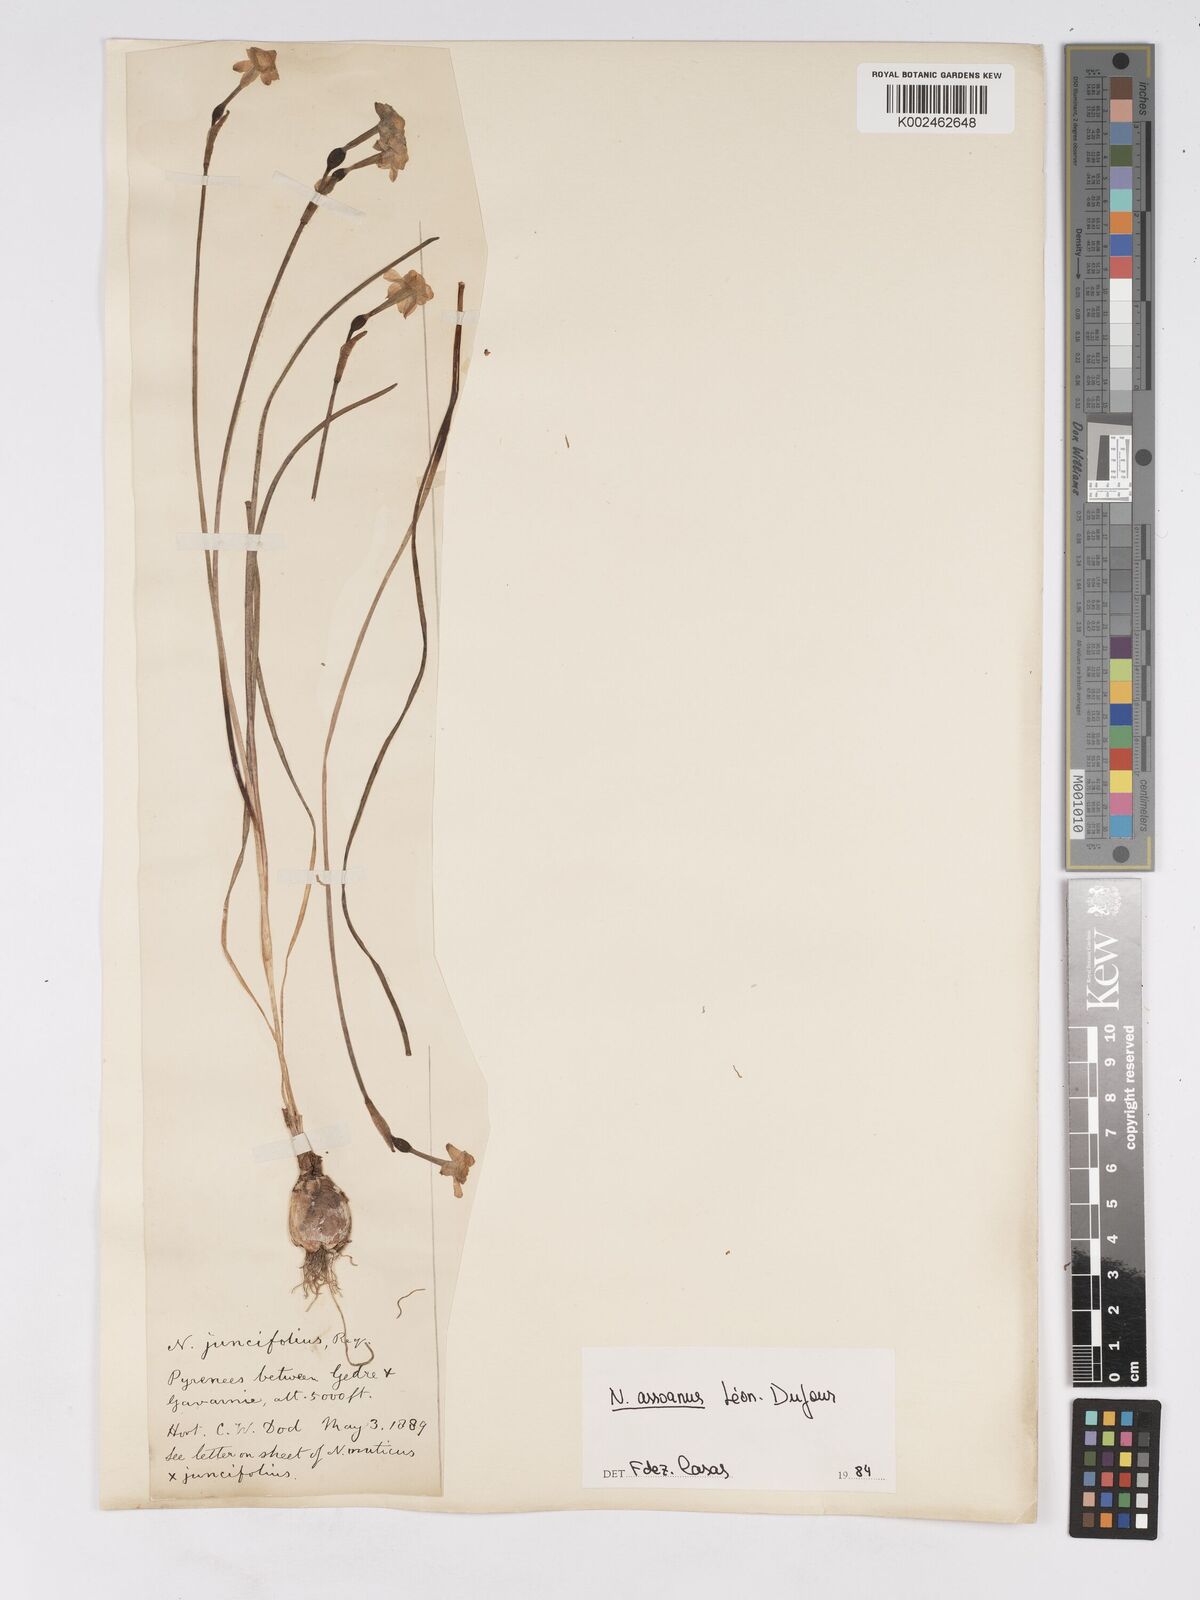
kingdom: Plantae
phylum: Tracheophyta
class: Liliopsida
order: Asparagales
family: Amaryllidaceae
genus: Narcissus
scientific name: Narcissus assoanus
